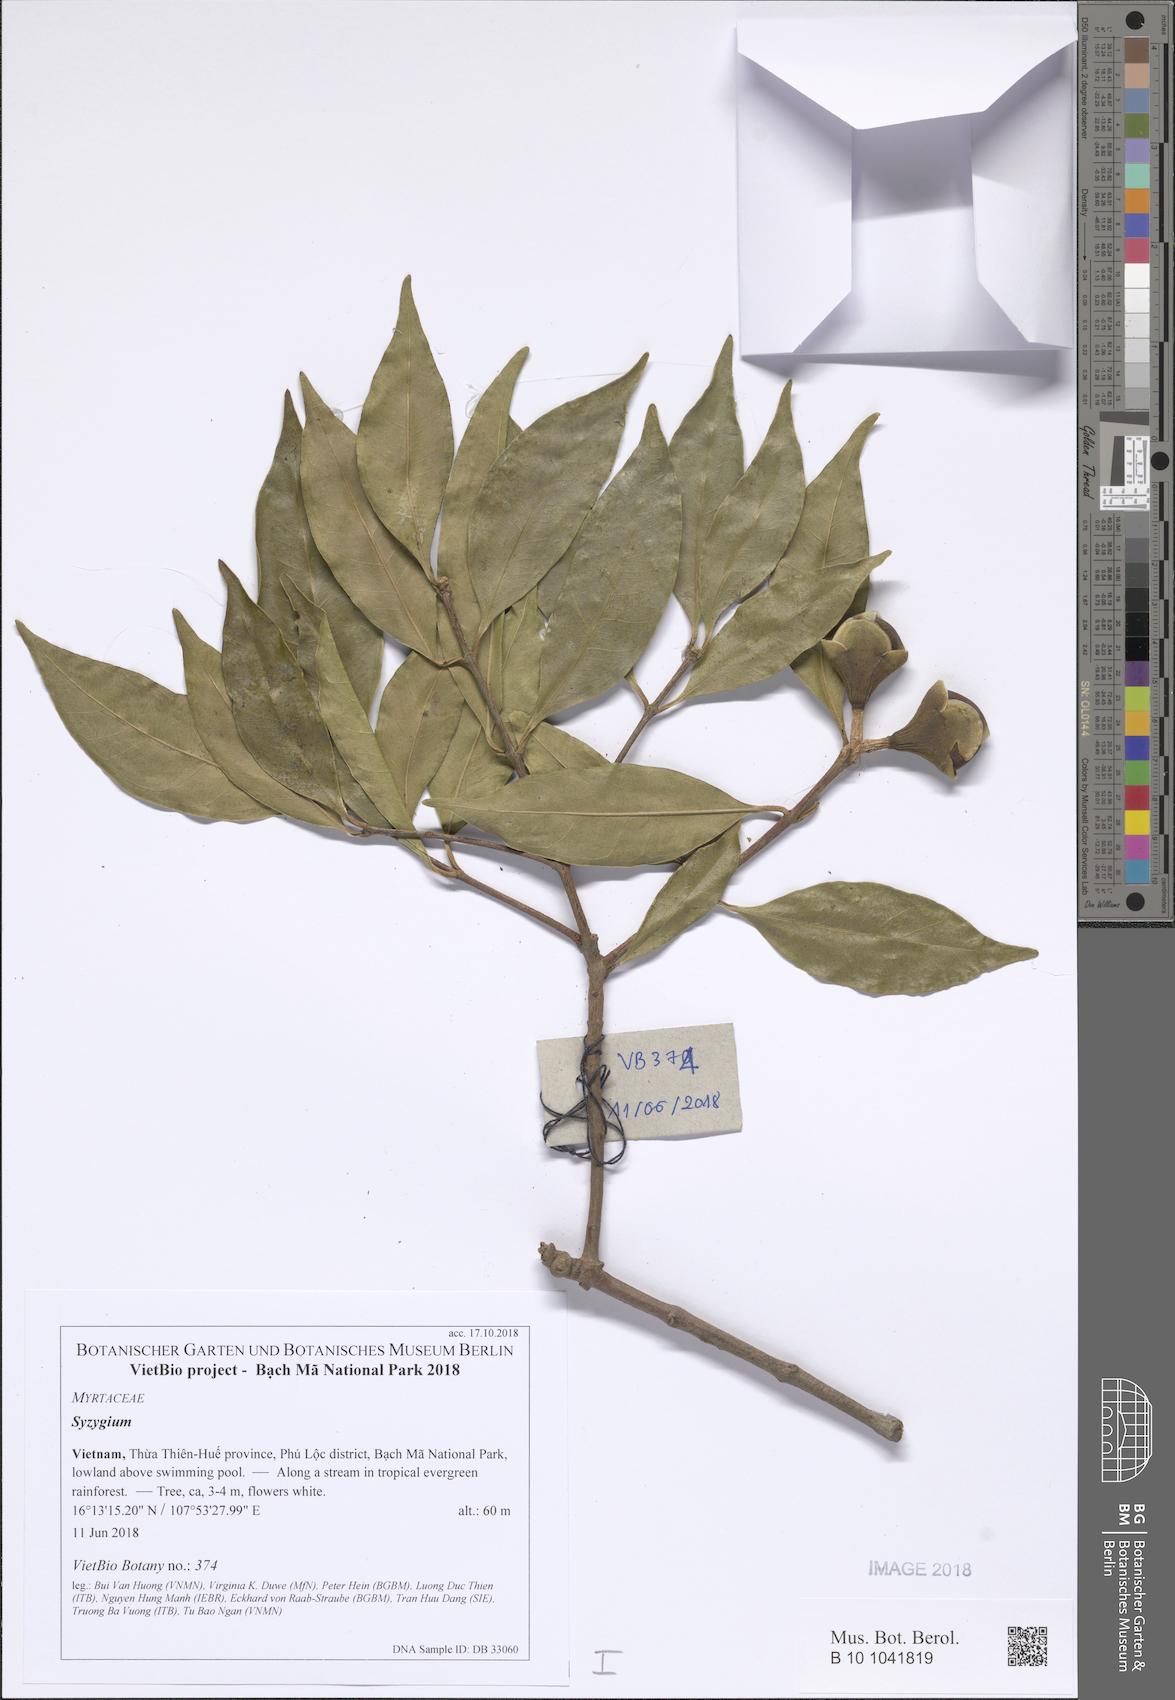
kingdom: Plantae
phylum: Tracheophyta
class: Magnoliopsida
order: Myrtales
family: Myrtaceae
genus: Syzygium
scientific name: Syzygium
